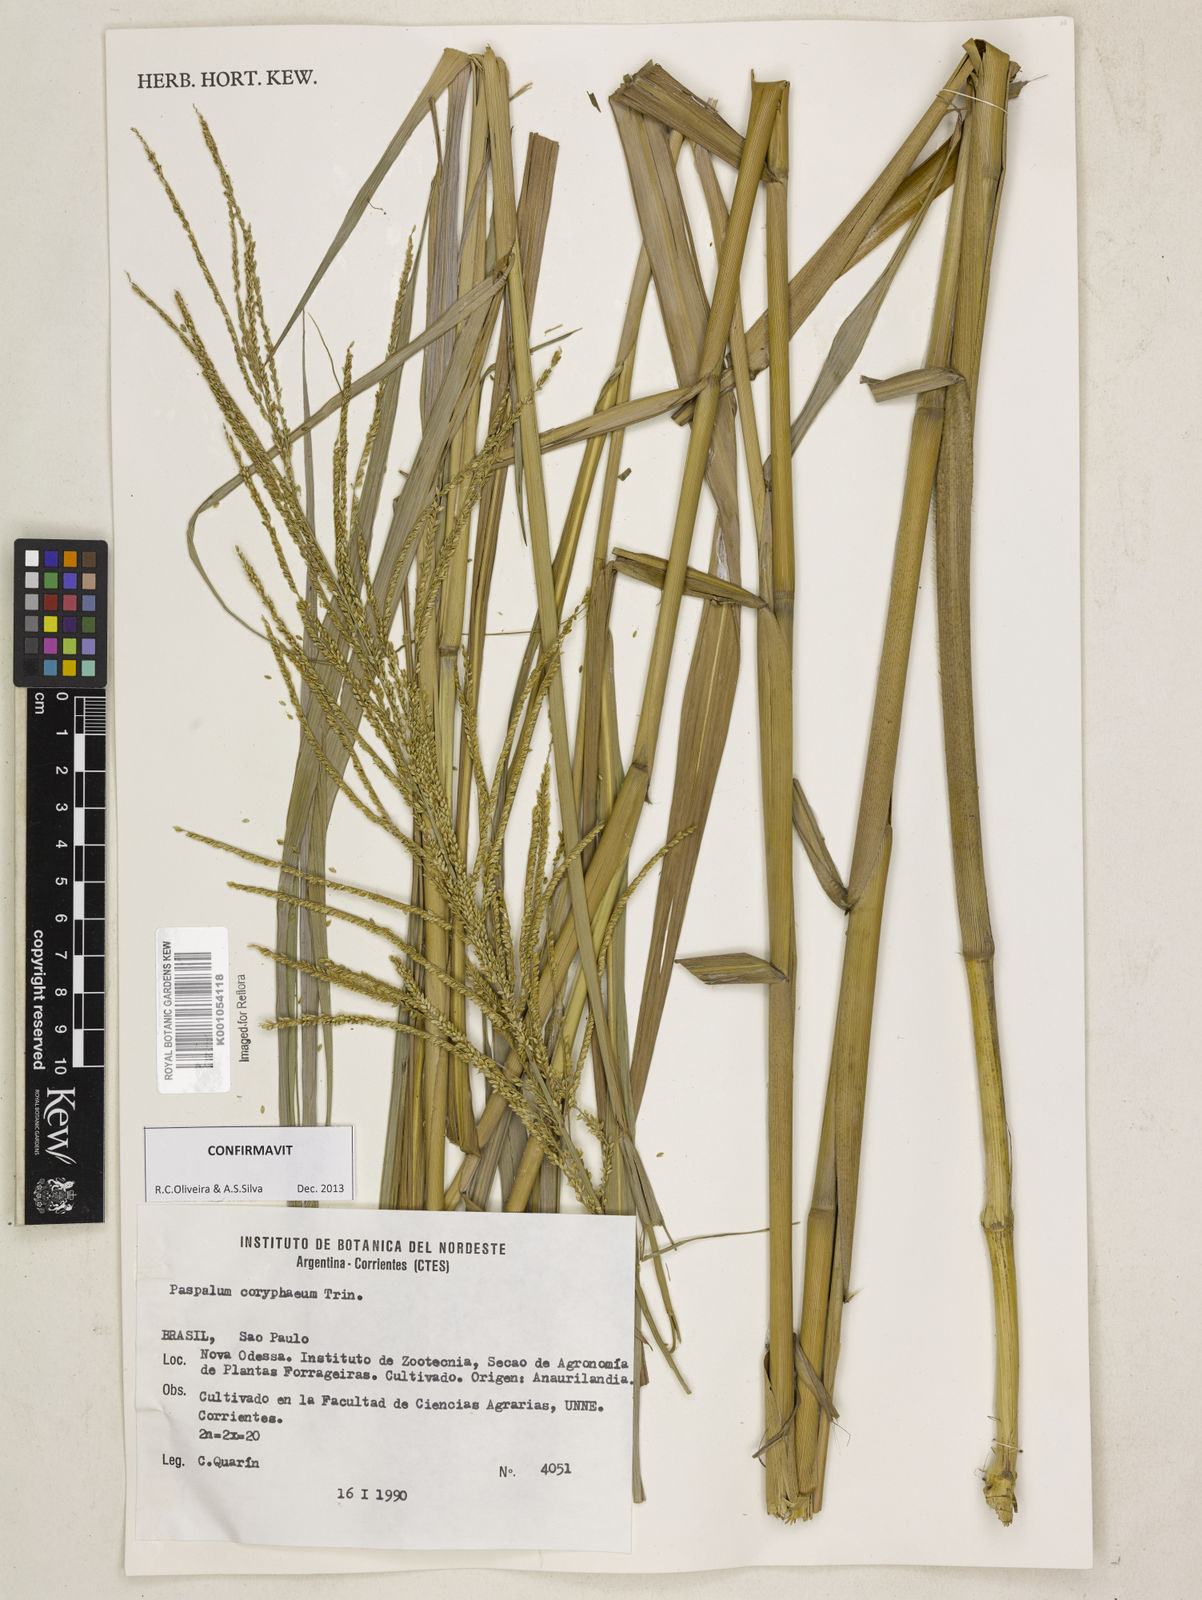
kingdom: Plantae
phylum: Tracheophyta
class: Liliopsida
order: Poales
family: Poaceae
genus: Paspalum
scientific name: Paspalum coryphaeum
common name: Emperor crowngrass
